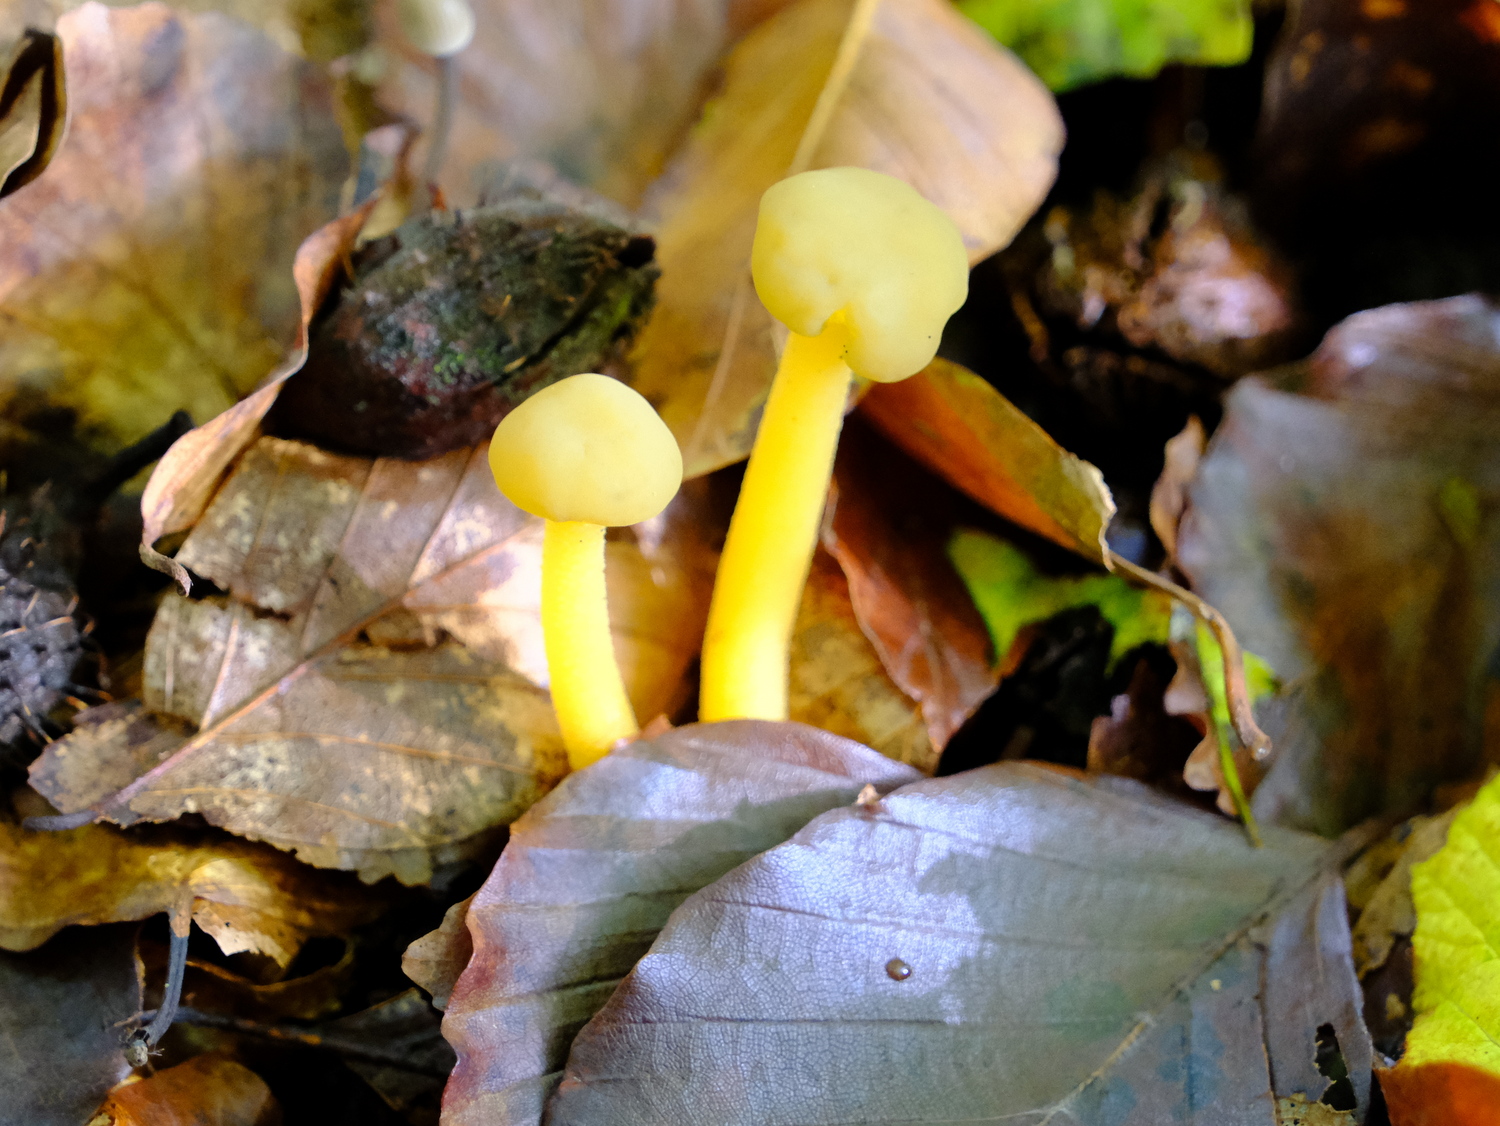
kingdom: Fungi
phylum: Ascomycota
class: Leotiomycetes
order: Leotiales
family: Leotiaceae
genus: Leotia
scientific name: Leotia lubrica
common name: ravsvamp
